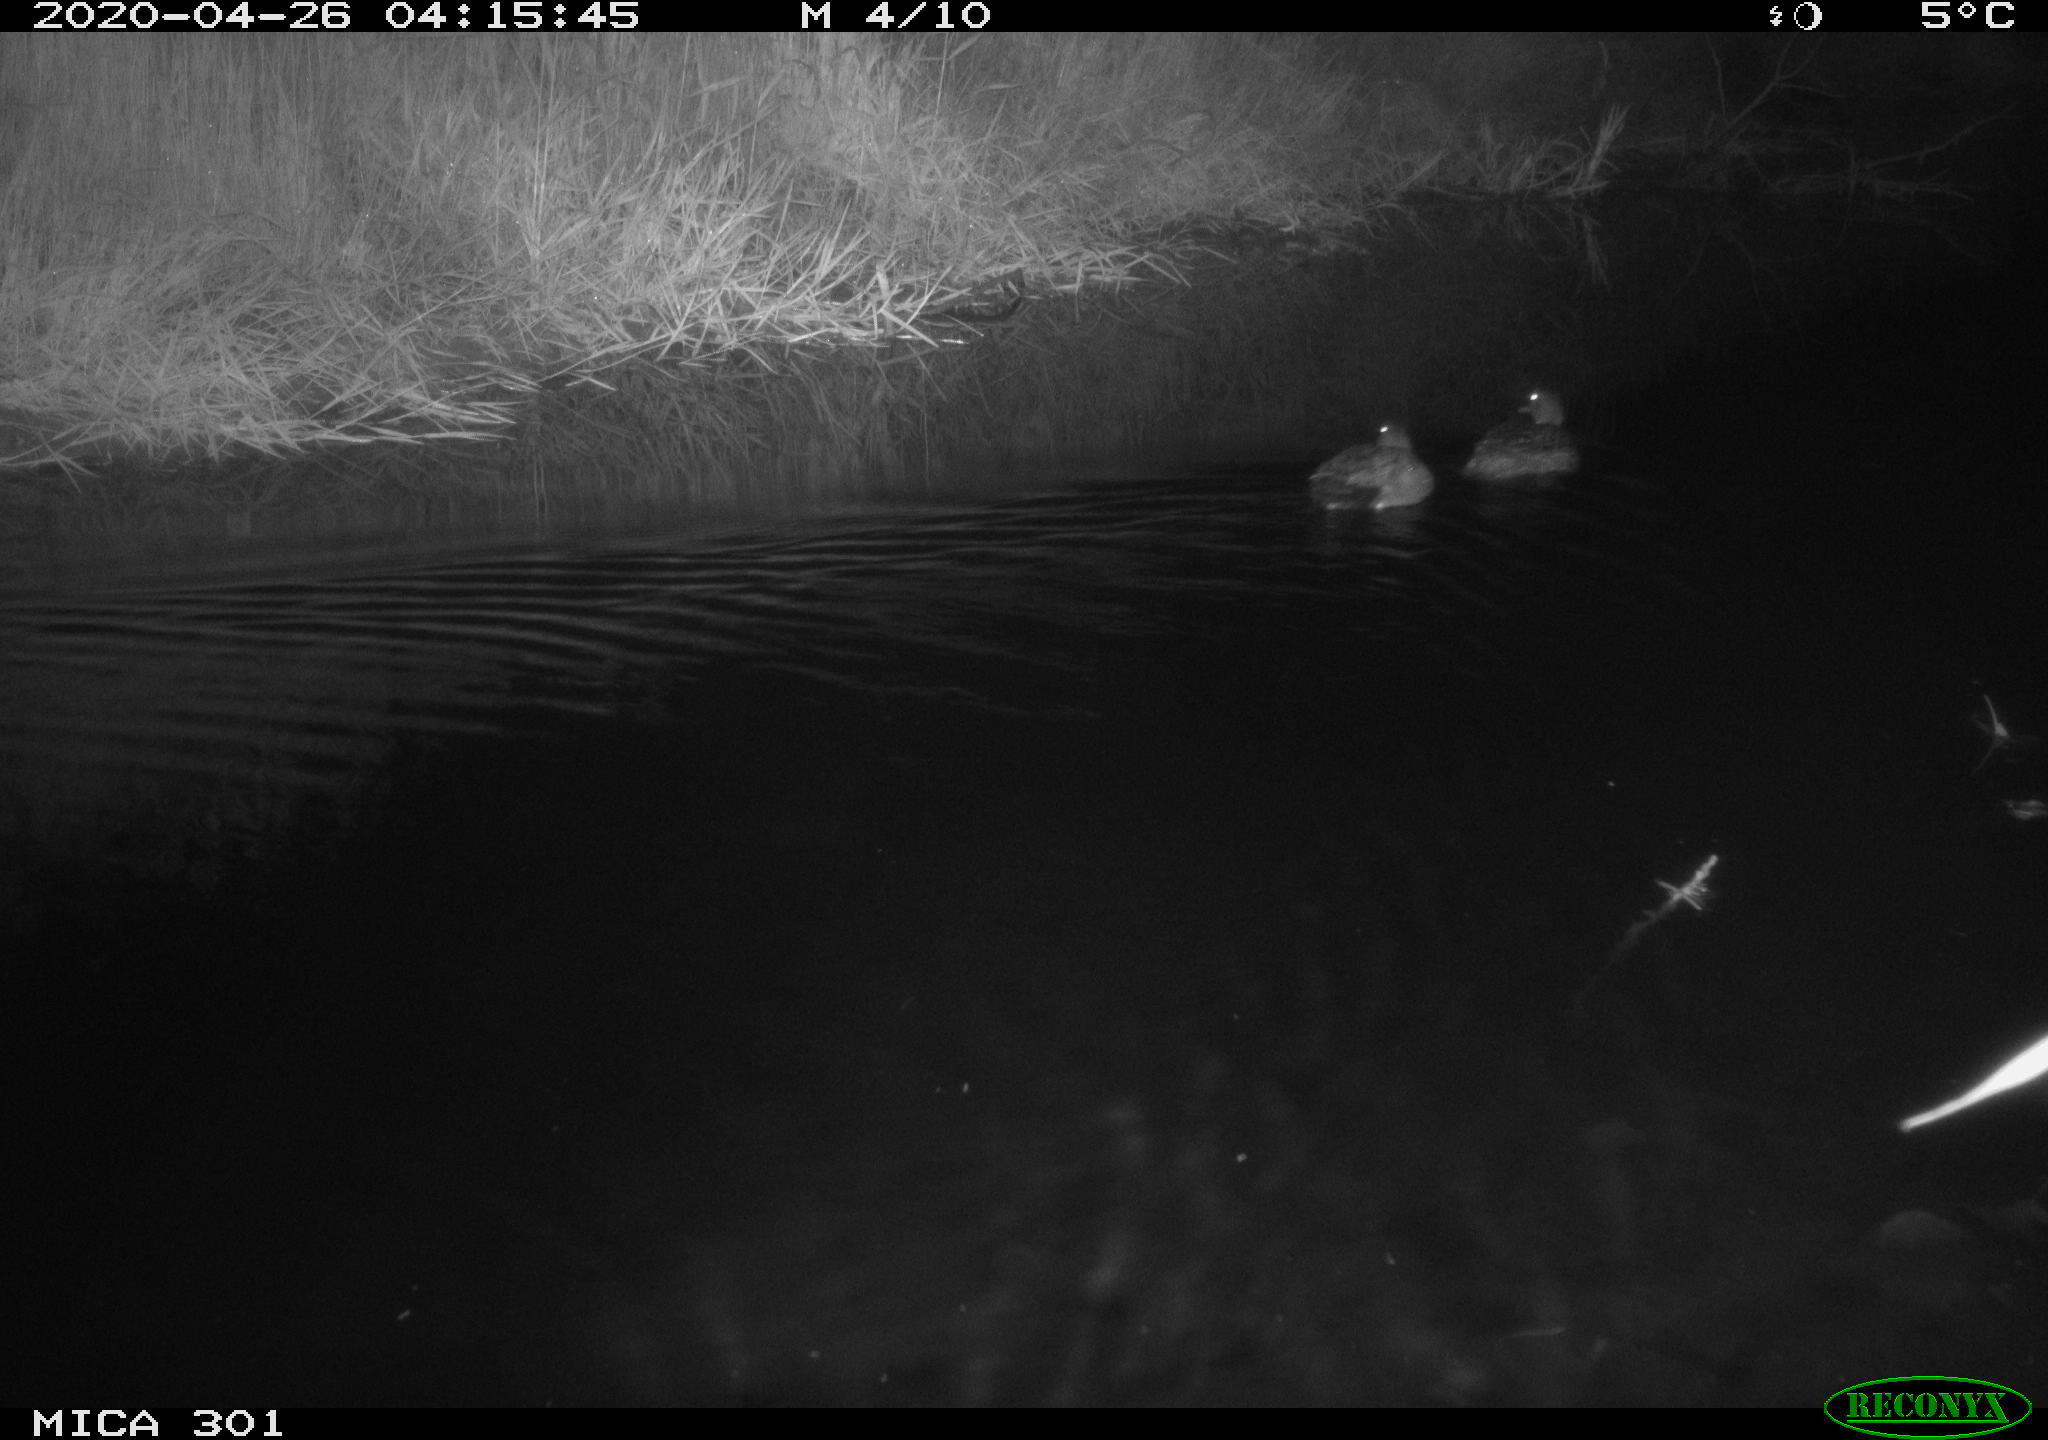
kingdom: Animalia
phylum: Chordata
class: Aves
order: Anseriformes
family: Anatidae
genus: Mareca
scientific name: Mareca strepera
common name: Gadwall
